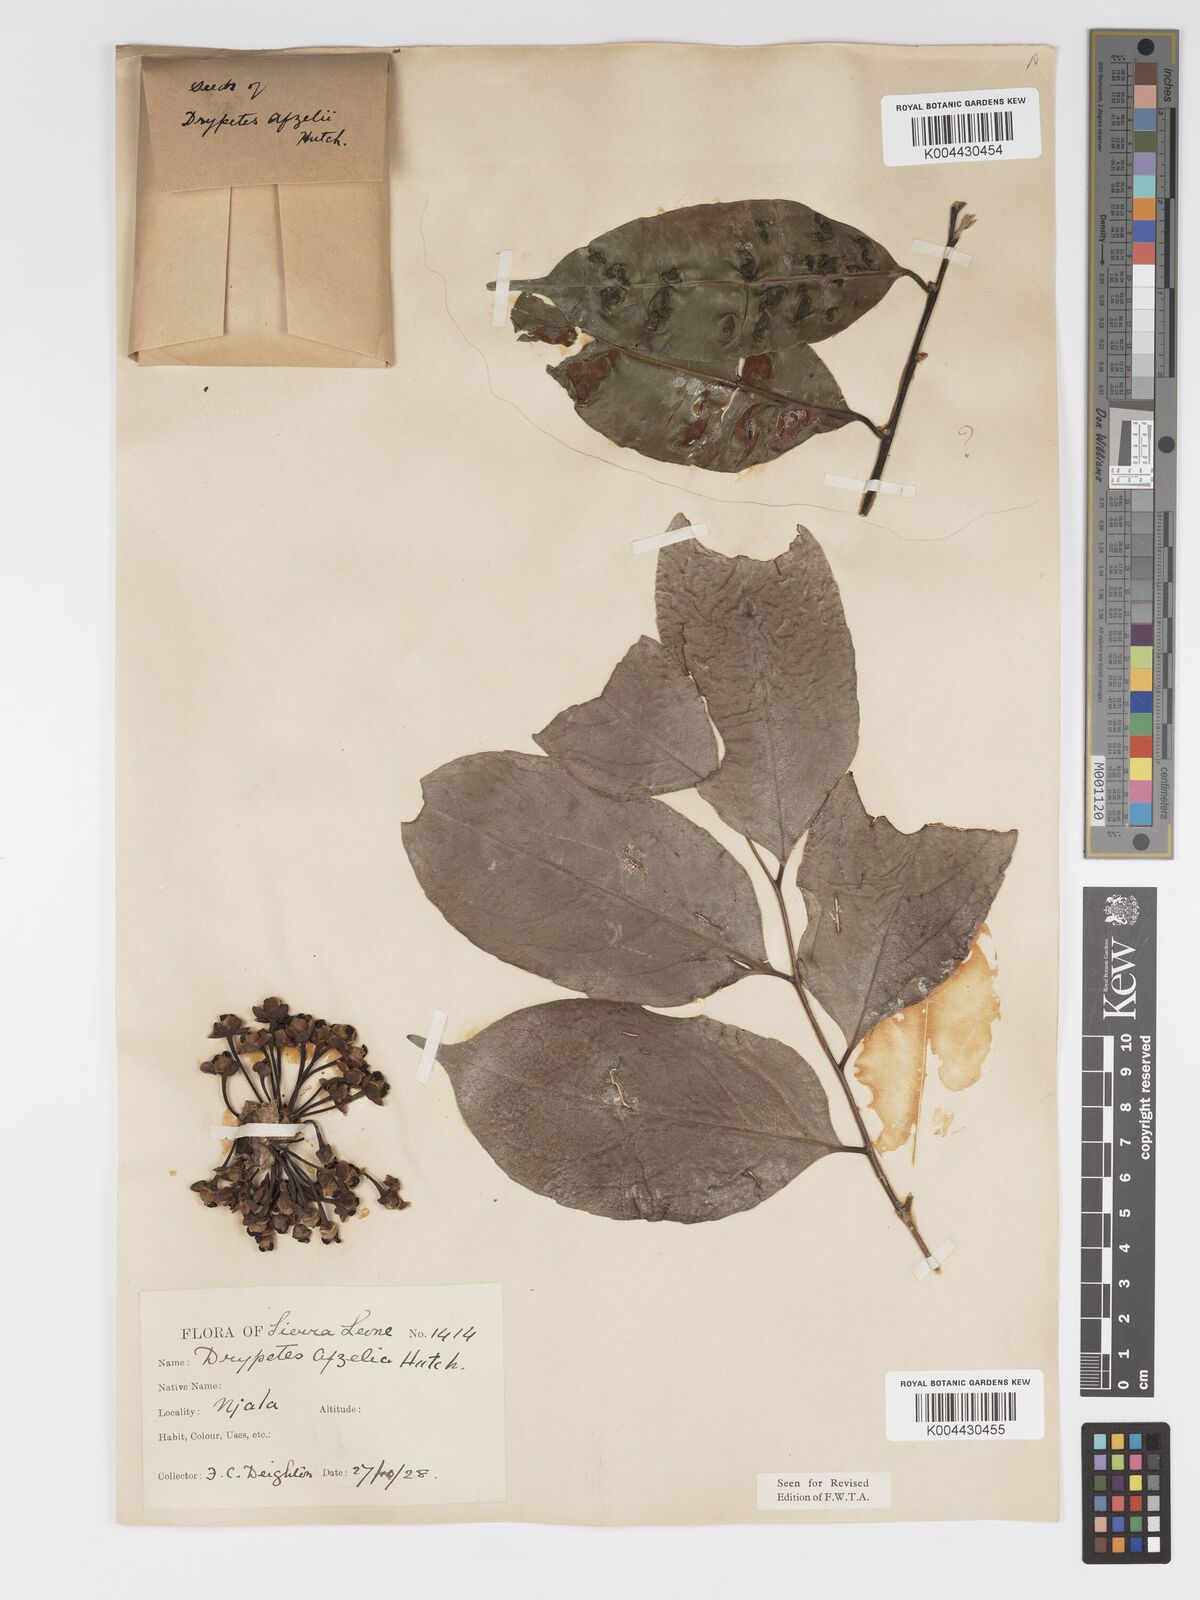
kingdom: Plantae
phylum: Tracheophyta
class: Magnoliopsida
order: Malpighiales
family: Putranjivaceae
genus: Drypetes
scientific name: Drypetes afzelii
